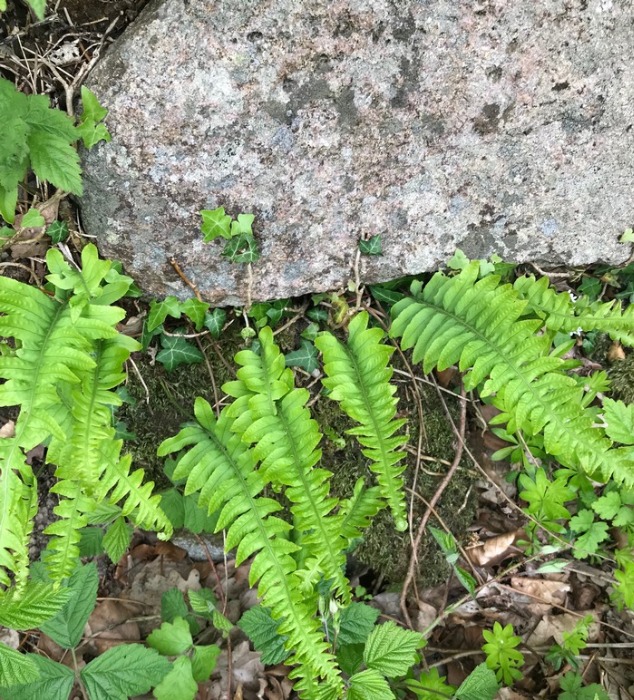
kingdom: Plantae
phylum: Tracheophyta
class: Polypodiopsida
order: Polypodiales
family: Polypodiaceae
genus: Polypodium
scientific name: Polypodium vulgare
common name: Almindelig engelsød
